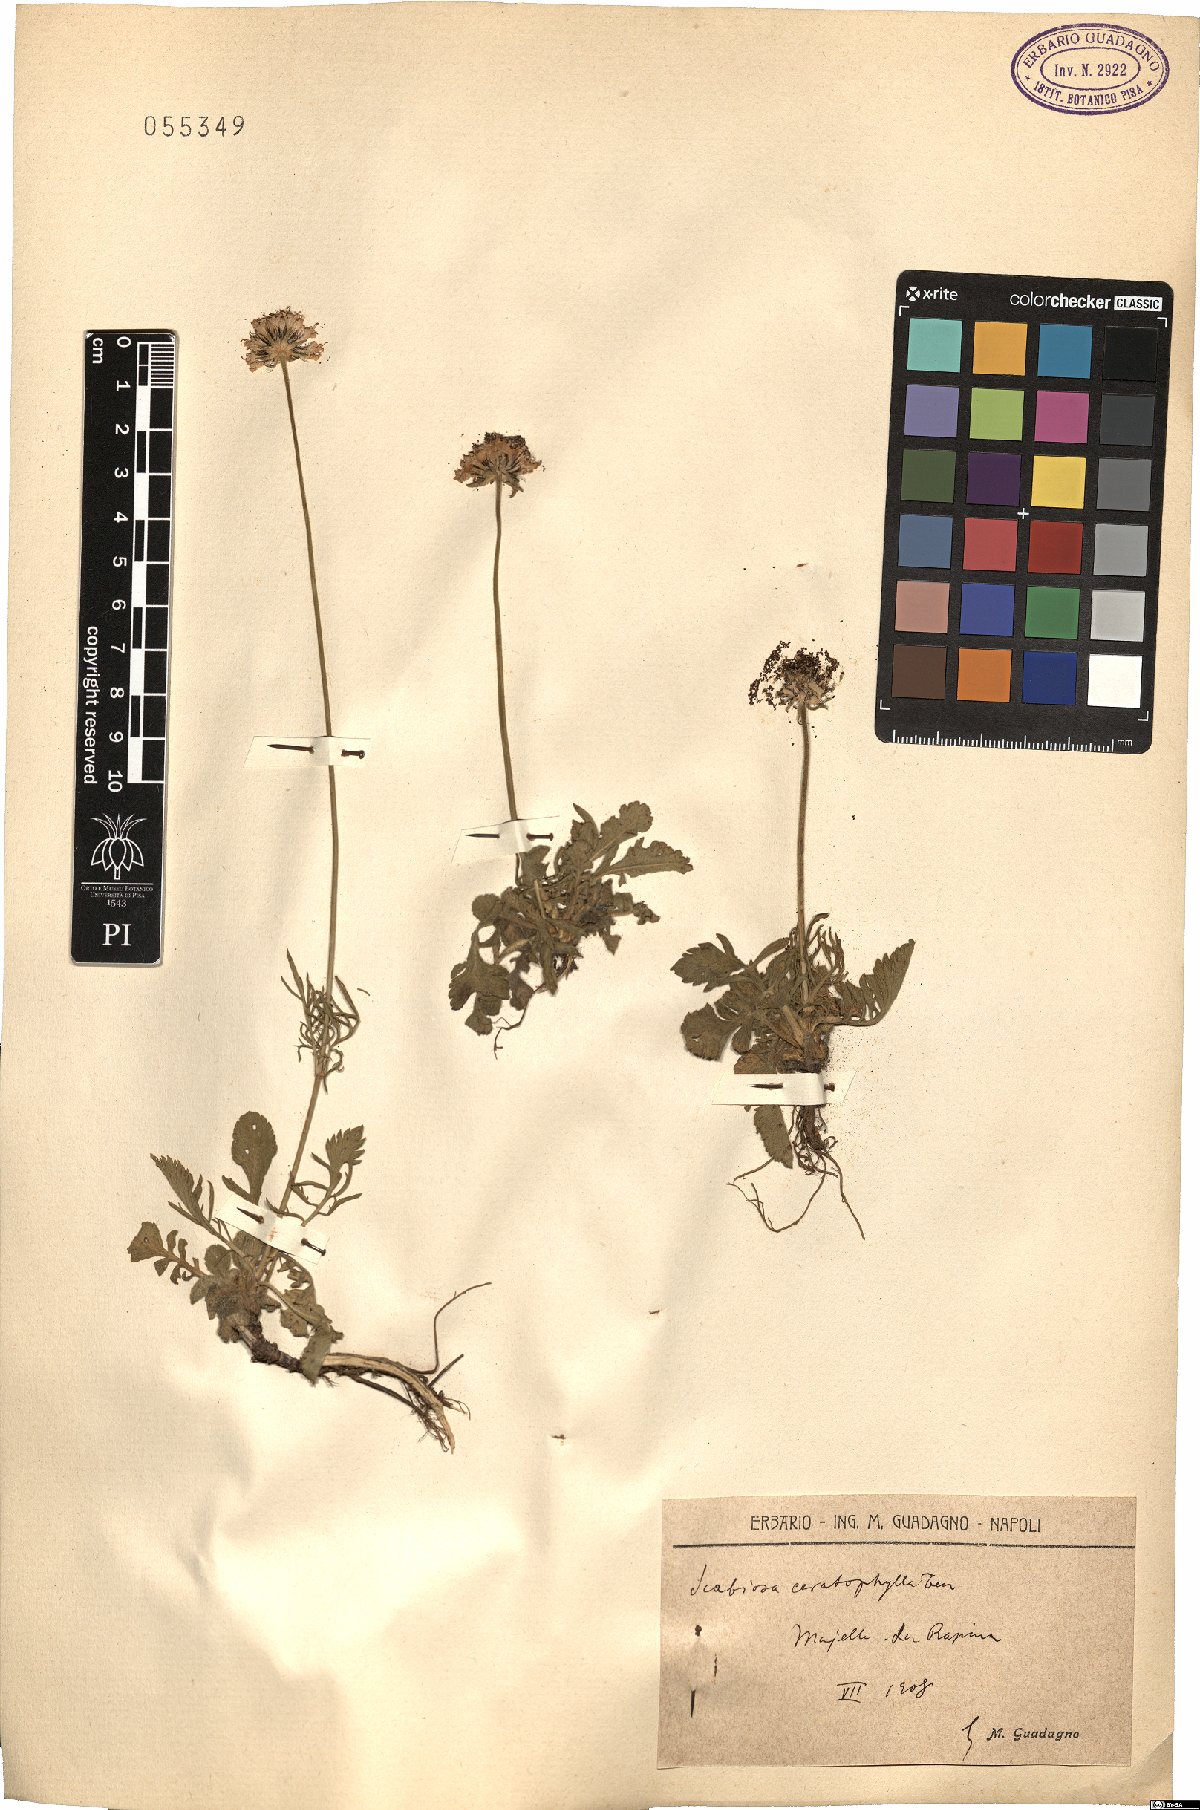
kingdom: Plantae
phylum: Tracheophyta
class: Magnoliopsida
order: Dipsacales
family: Caprifoliaceae
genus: Scabiosa
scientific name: Scabiosa triandra
